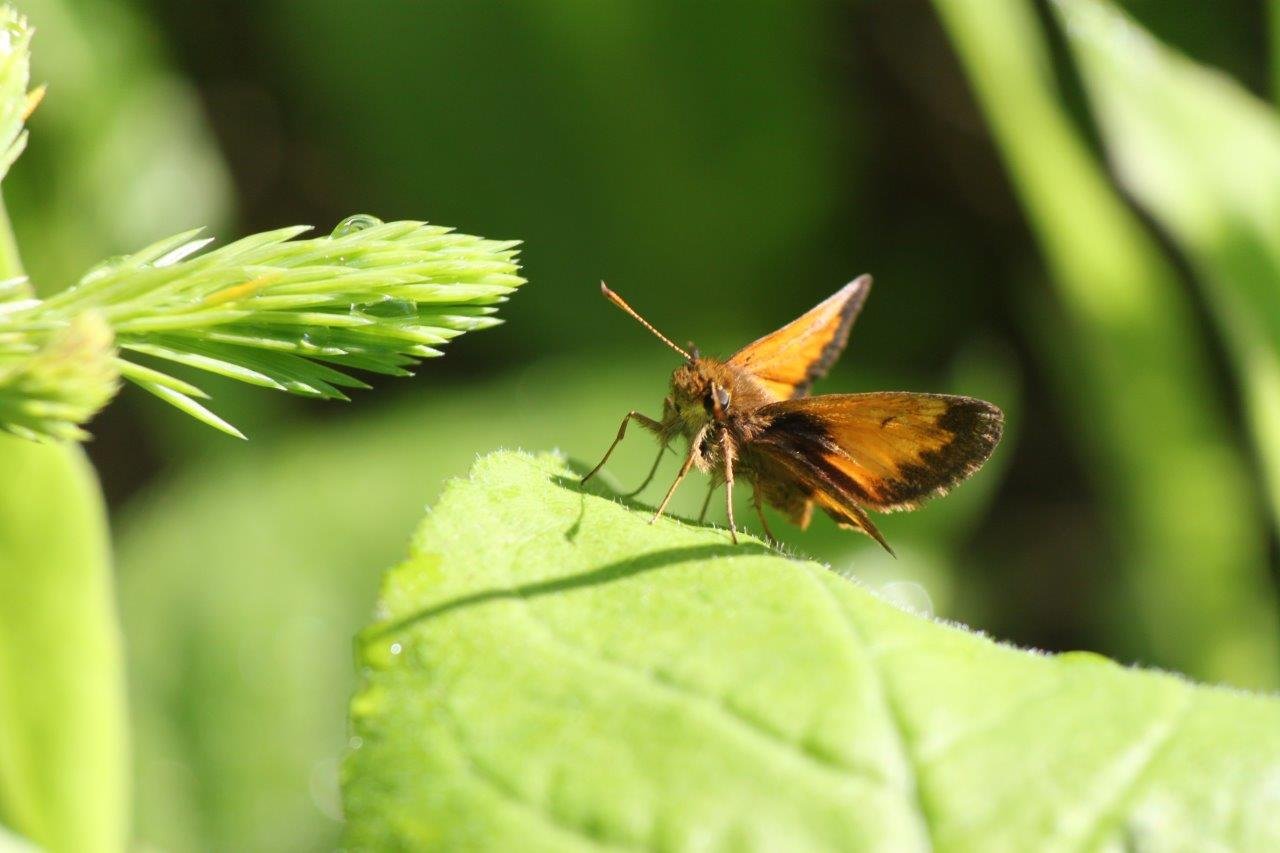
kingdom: Animalia
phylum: Arthropoda
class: Insecta
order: Lepidoptera
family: Hesperiidae
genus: Lon
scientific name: Lon hobomok
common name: Hobomok Skipper
